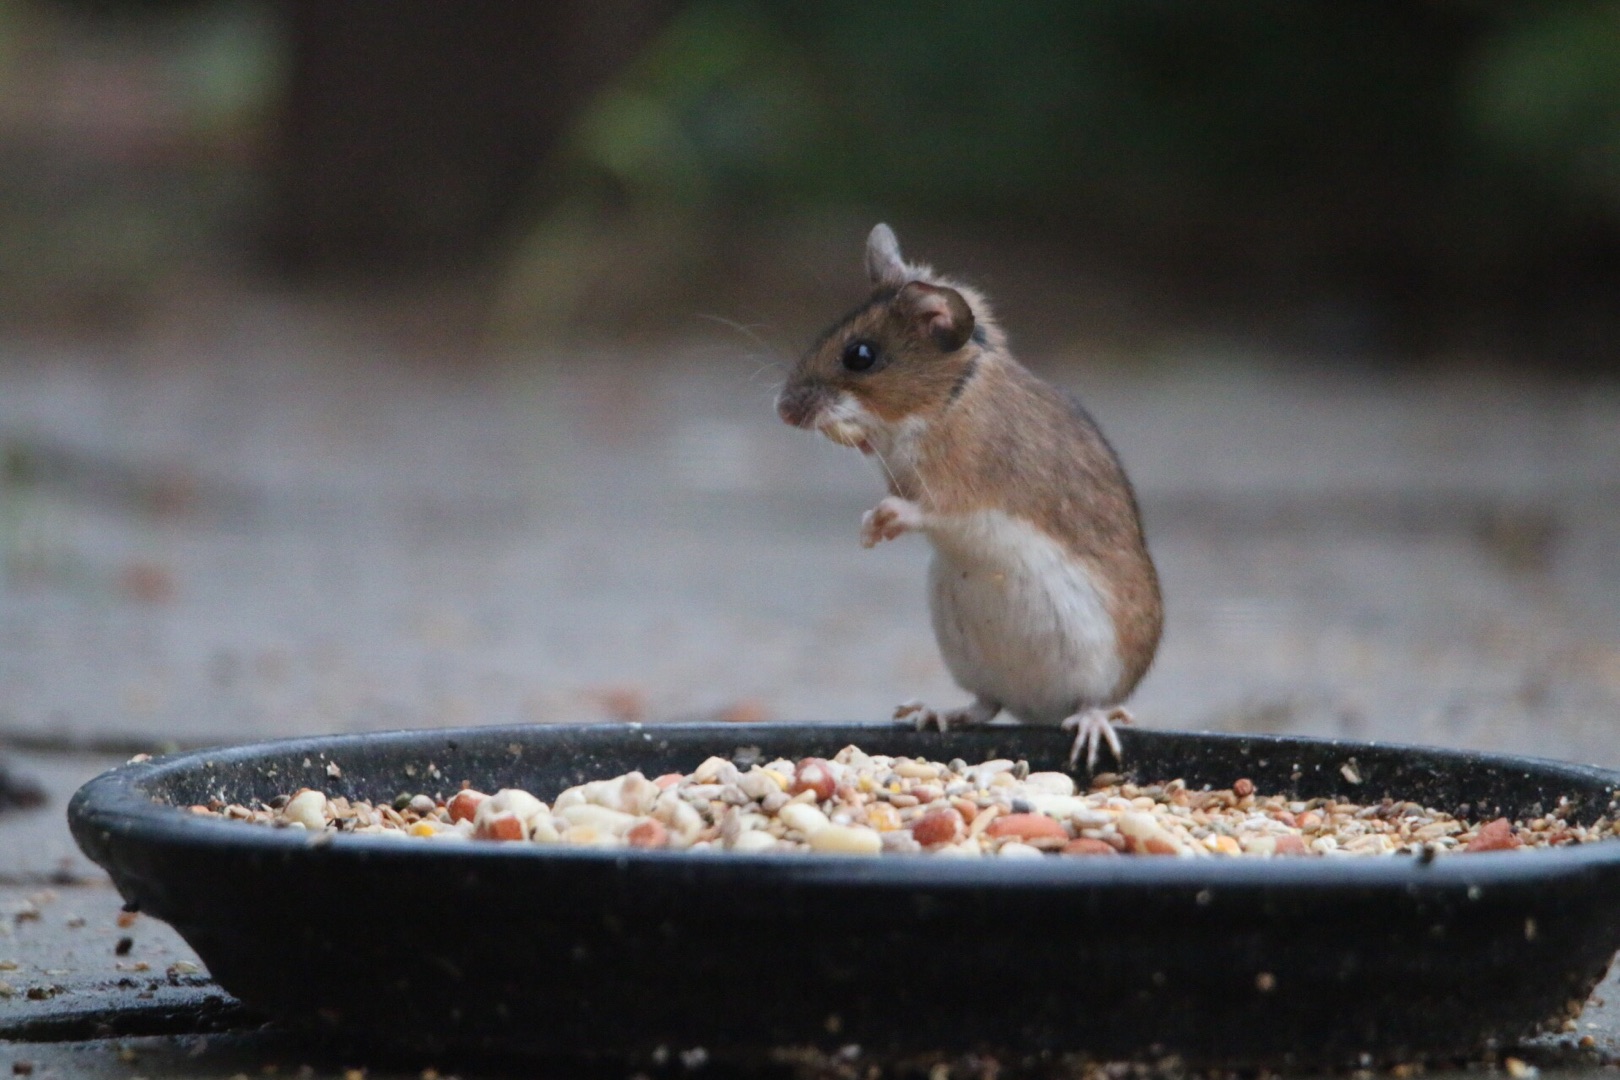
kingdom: Animalia
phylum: Chordata
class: Mammalia
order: Rodentia
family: Muridae
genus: Apodemus
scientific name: Apodemus flavicollis
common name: Halsbåndmus
